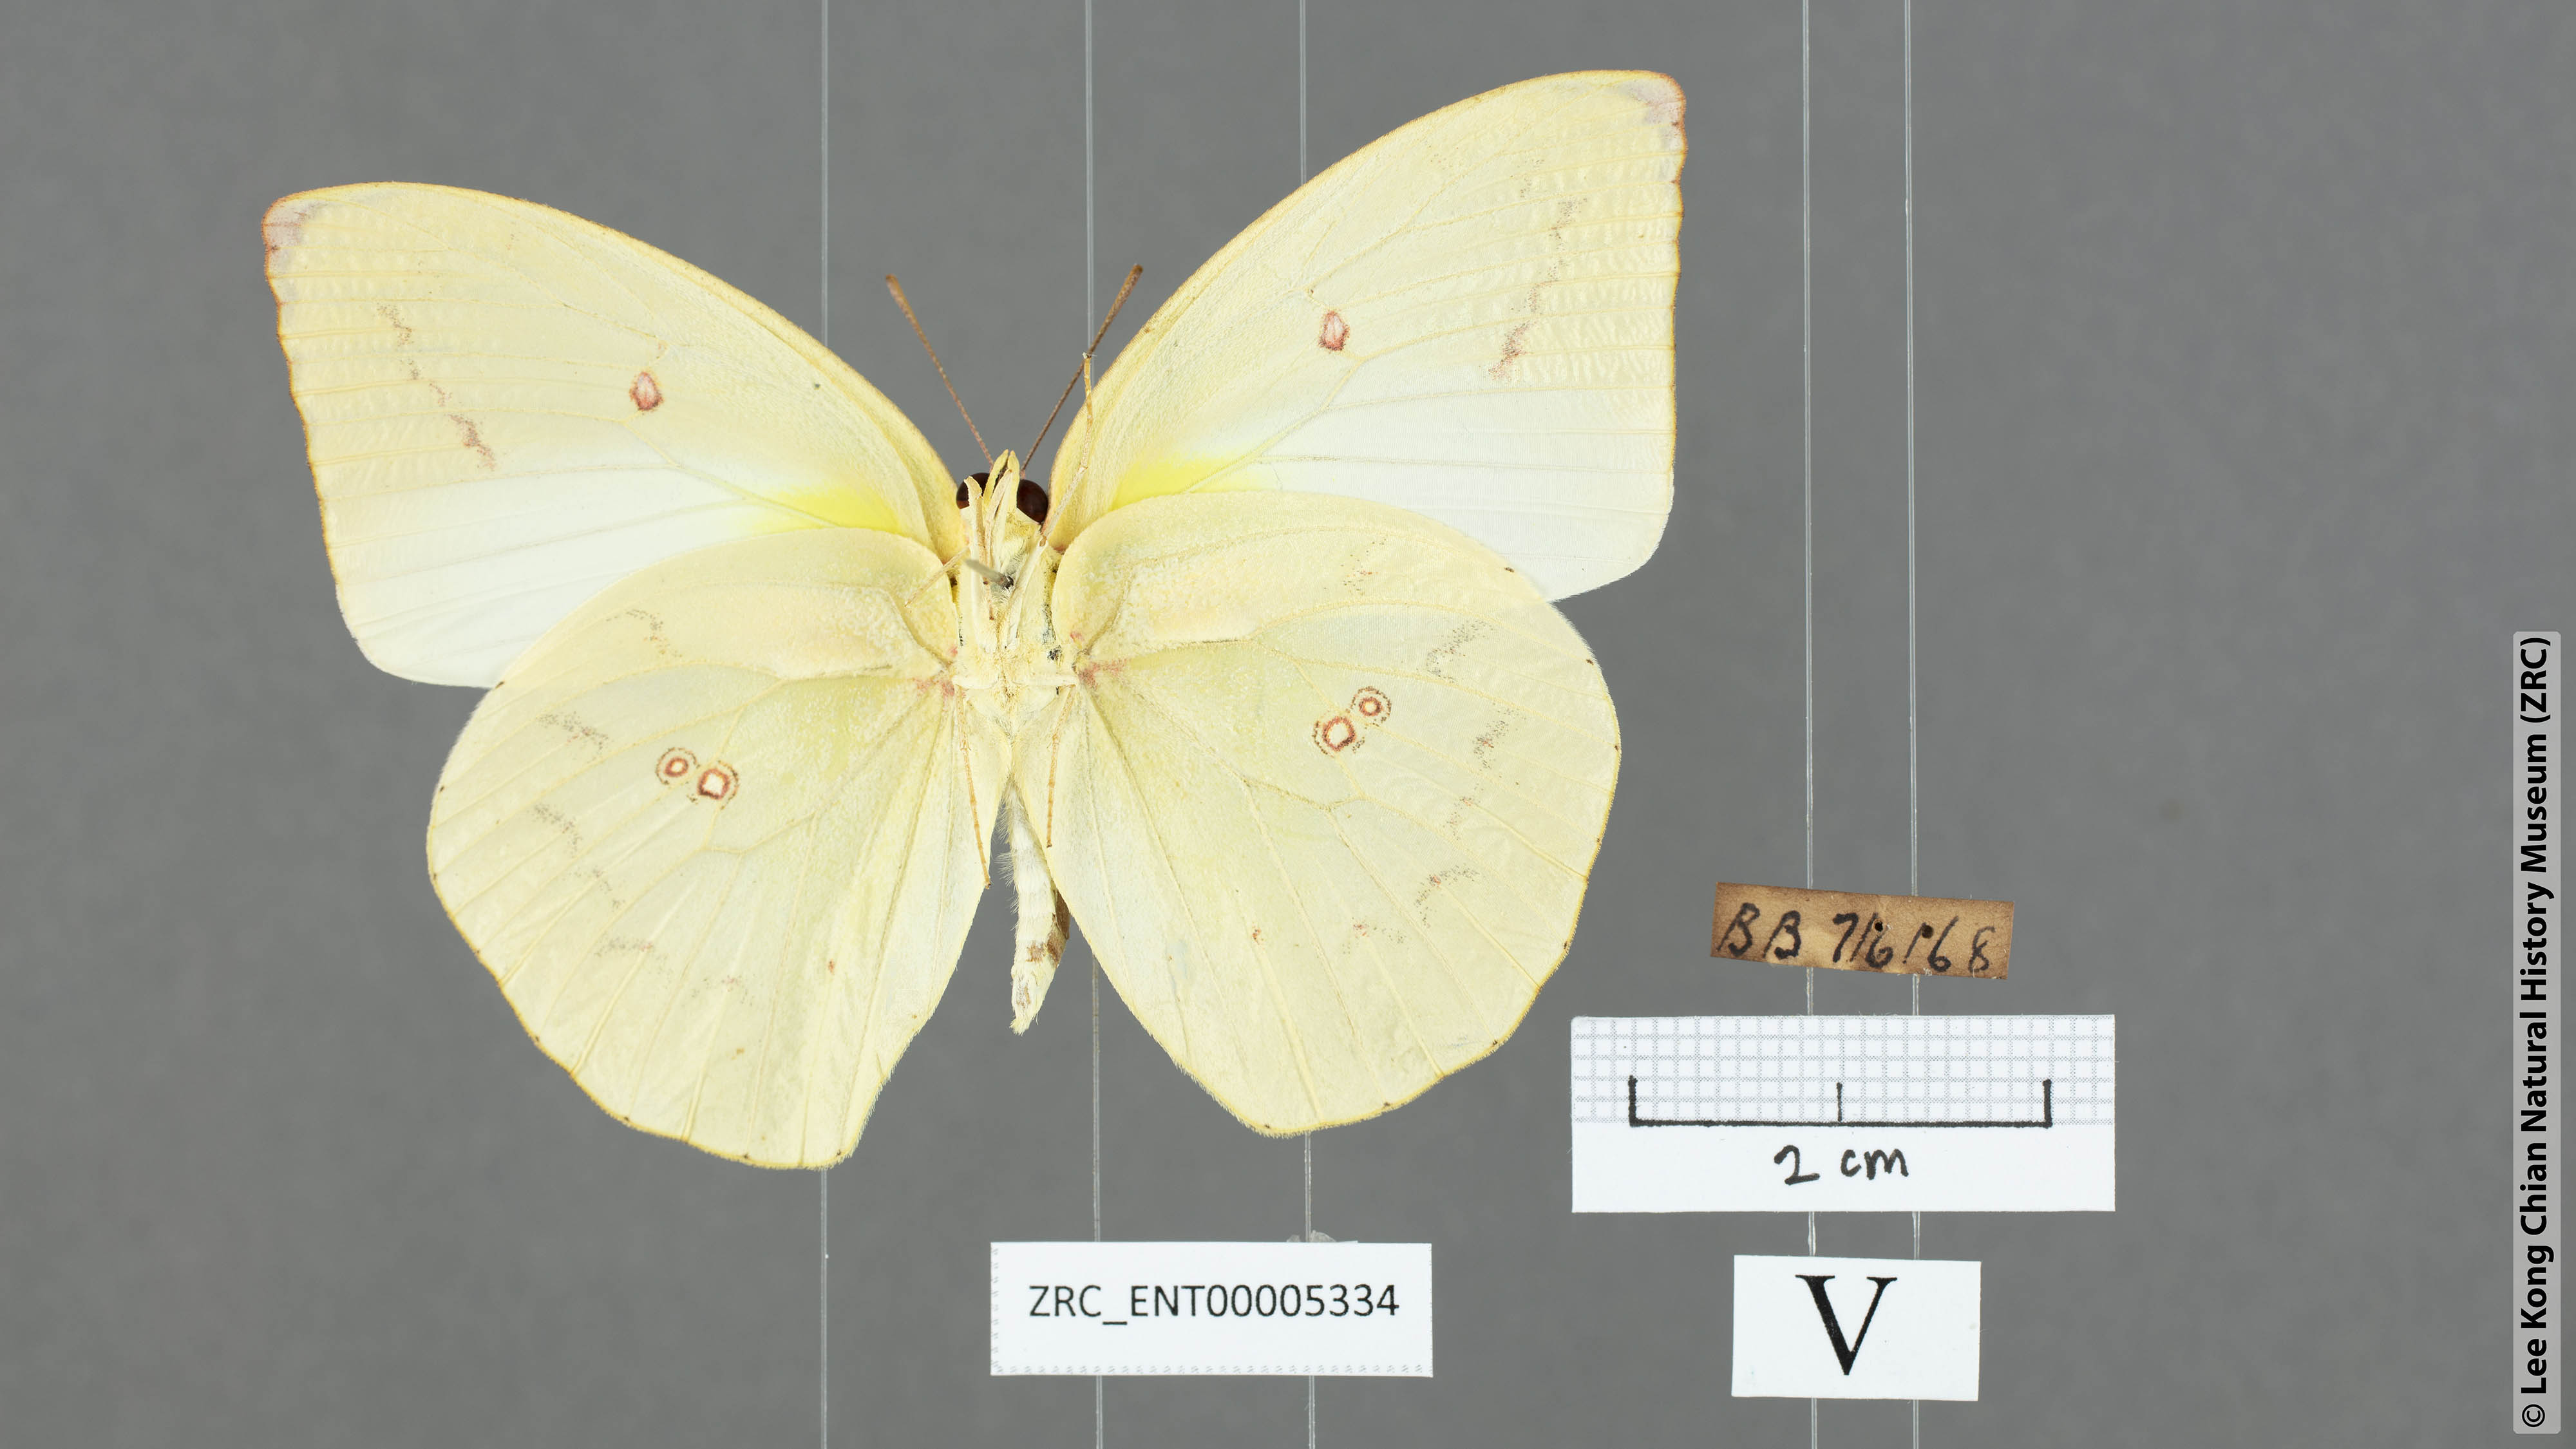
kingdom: Animalia
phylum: Arthropoda
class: Insecta
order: Lepidoptera
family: Pieridae
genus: Catopsilia
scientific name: Catopsilia pomona
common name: Common emigrant
